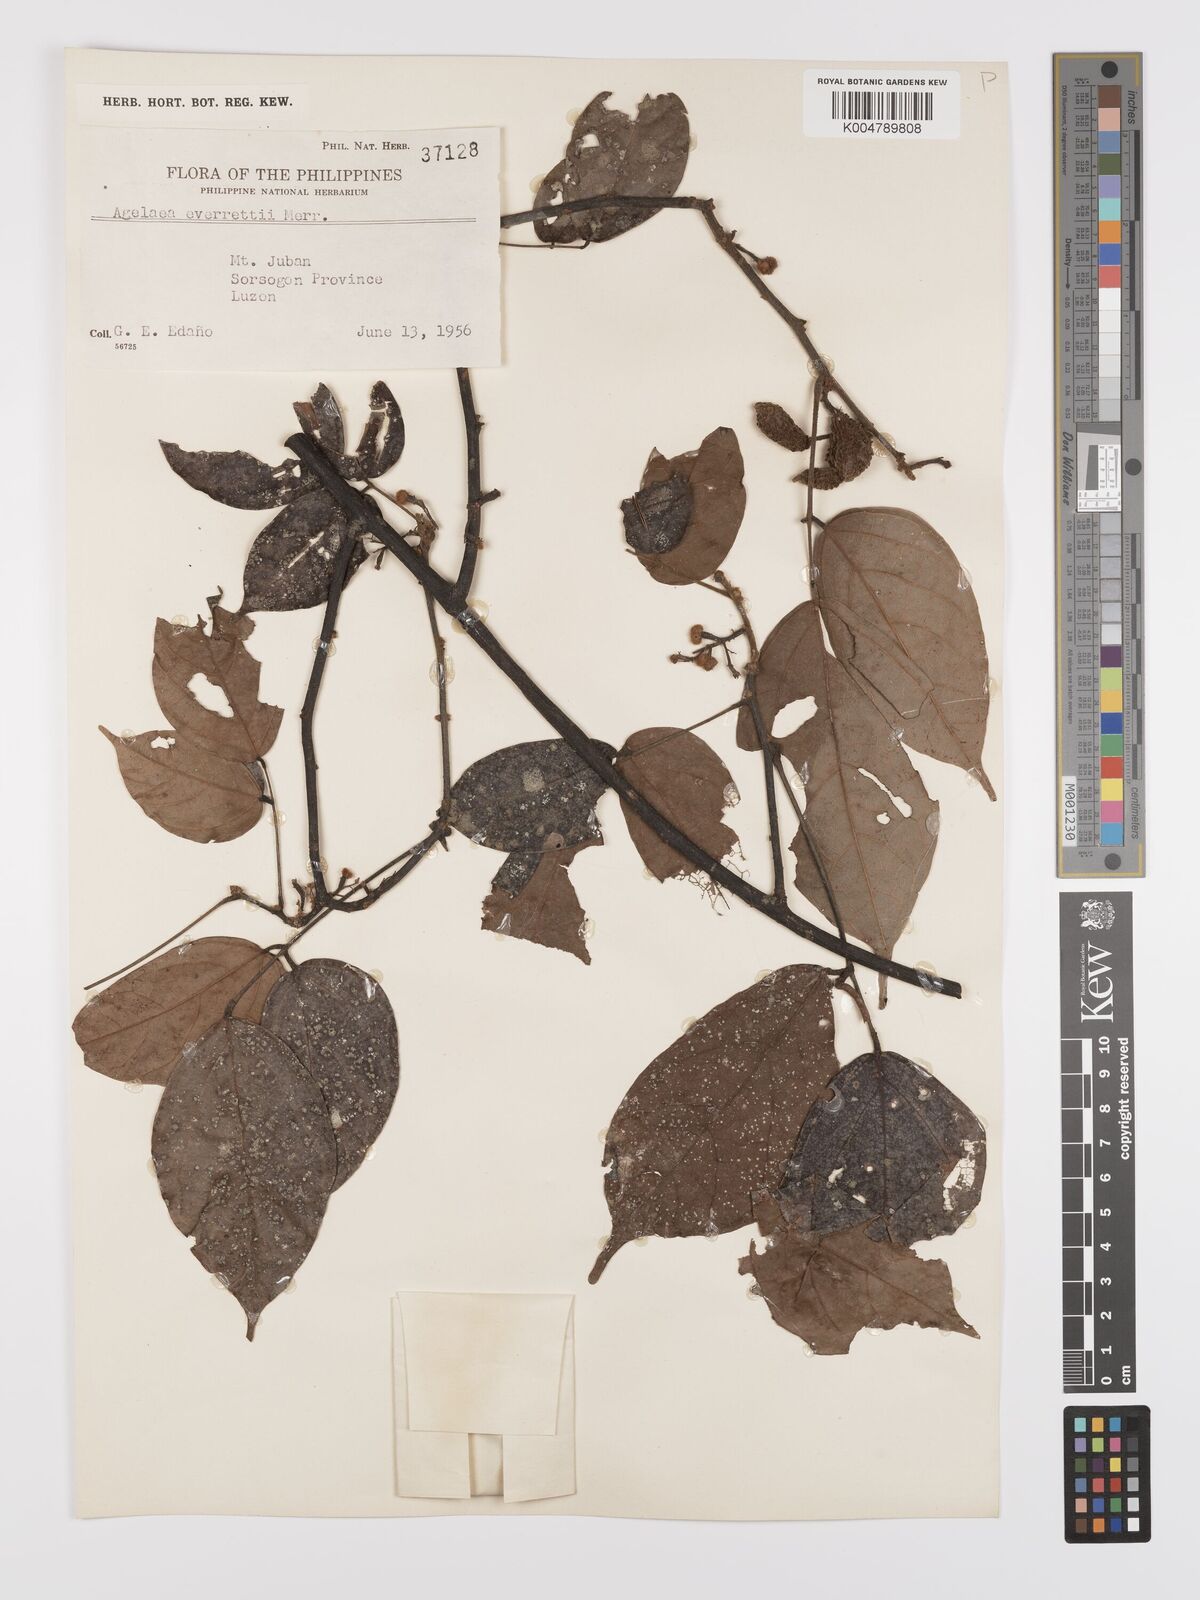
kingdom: Plantae
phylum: Tracheophyta
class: Magnoliopsida
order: Oxalidales
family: Connaraceae
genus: Agelaea
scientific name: Agelaea borneensis
